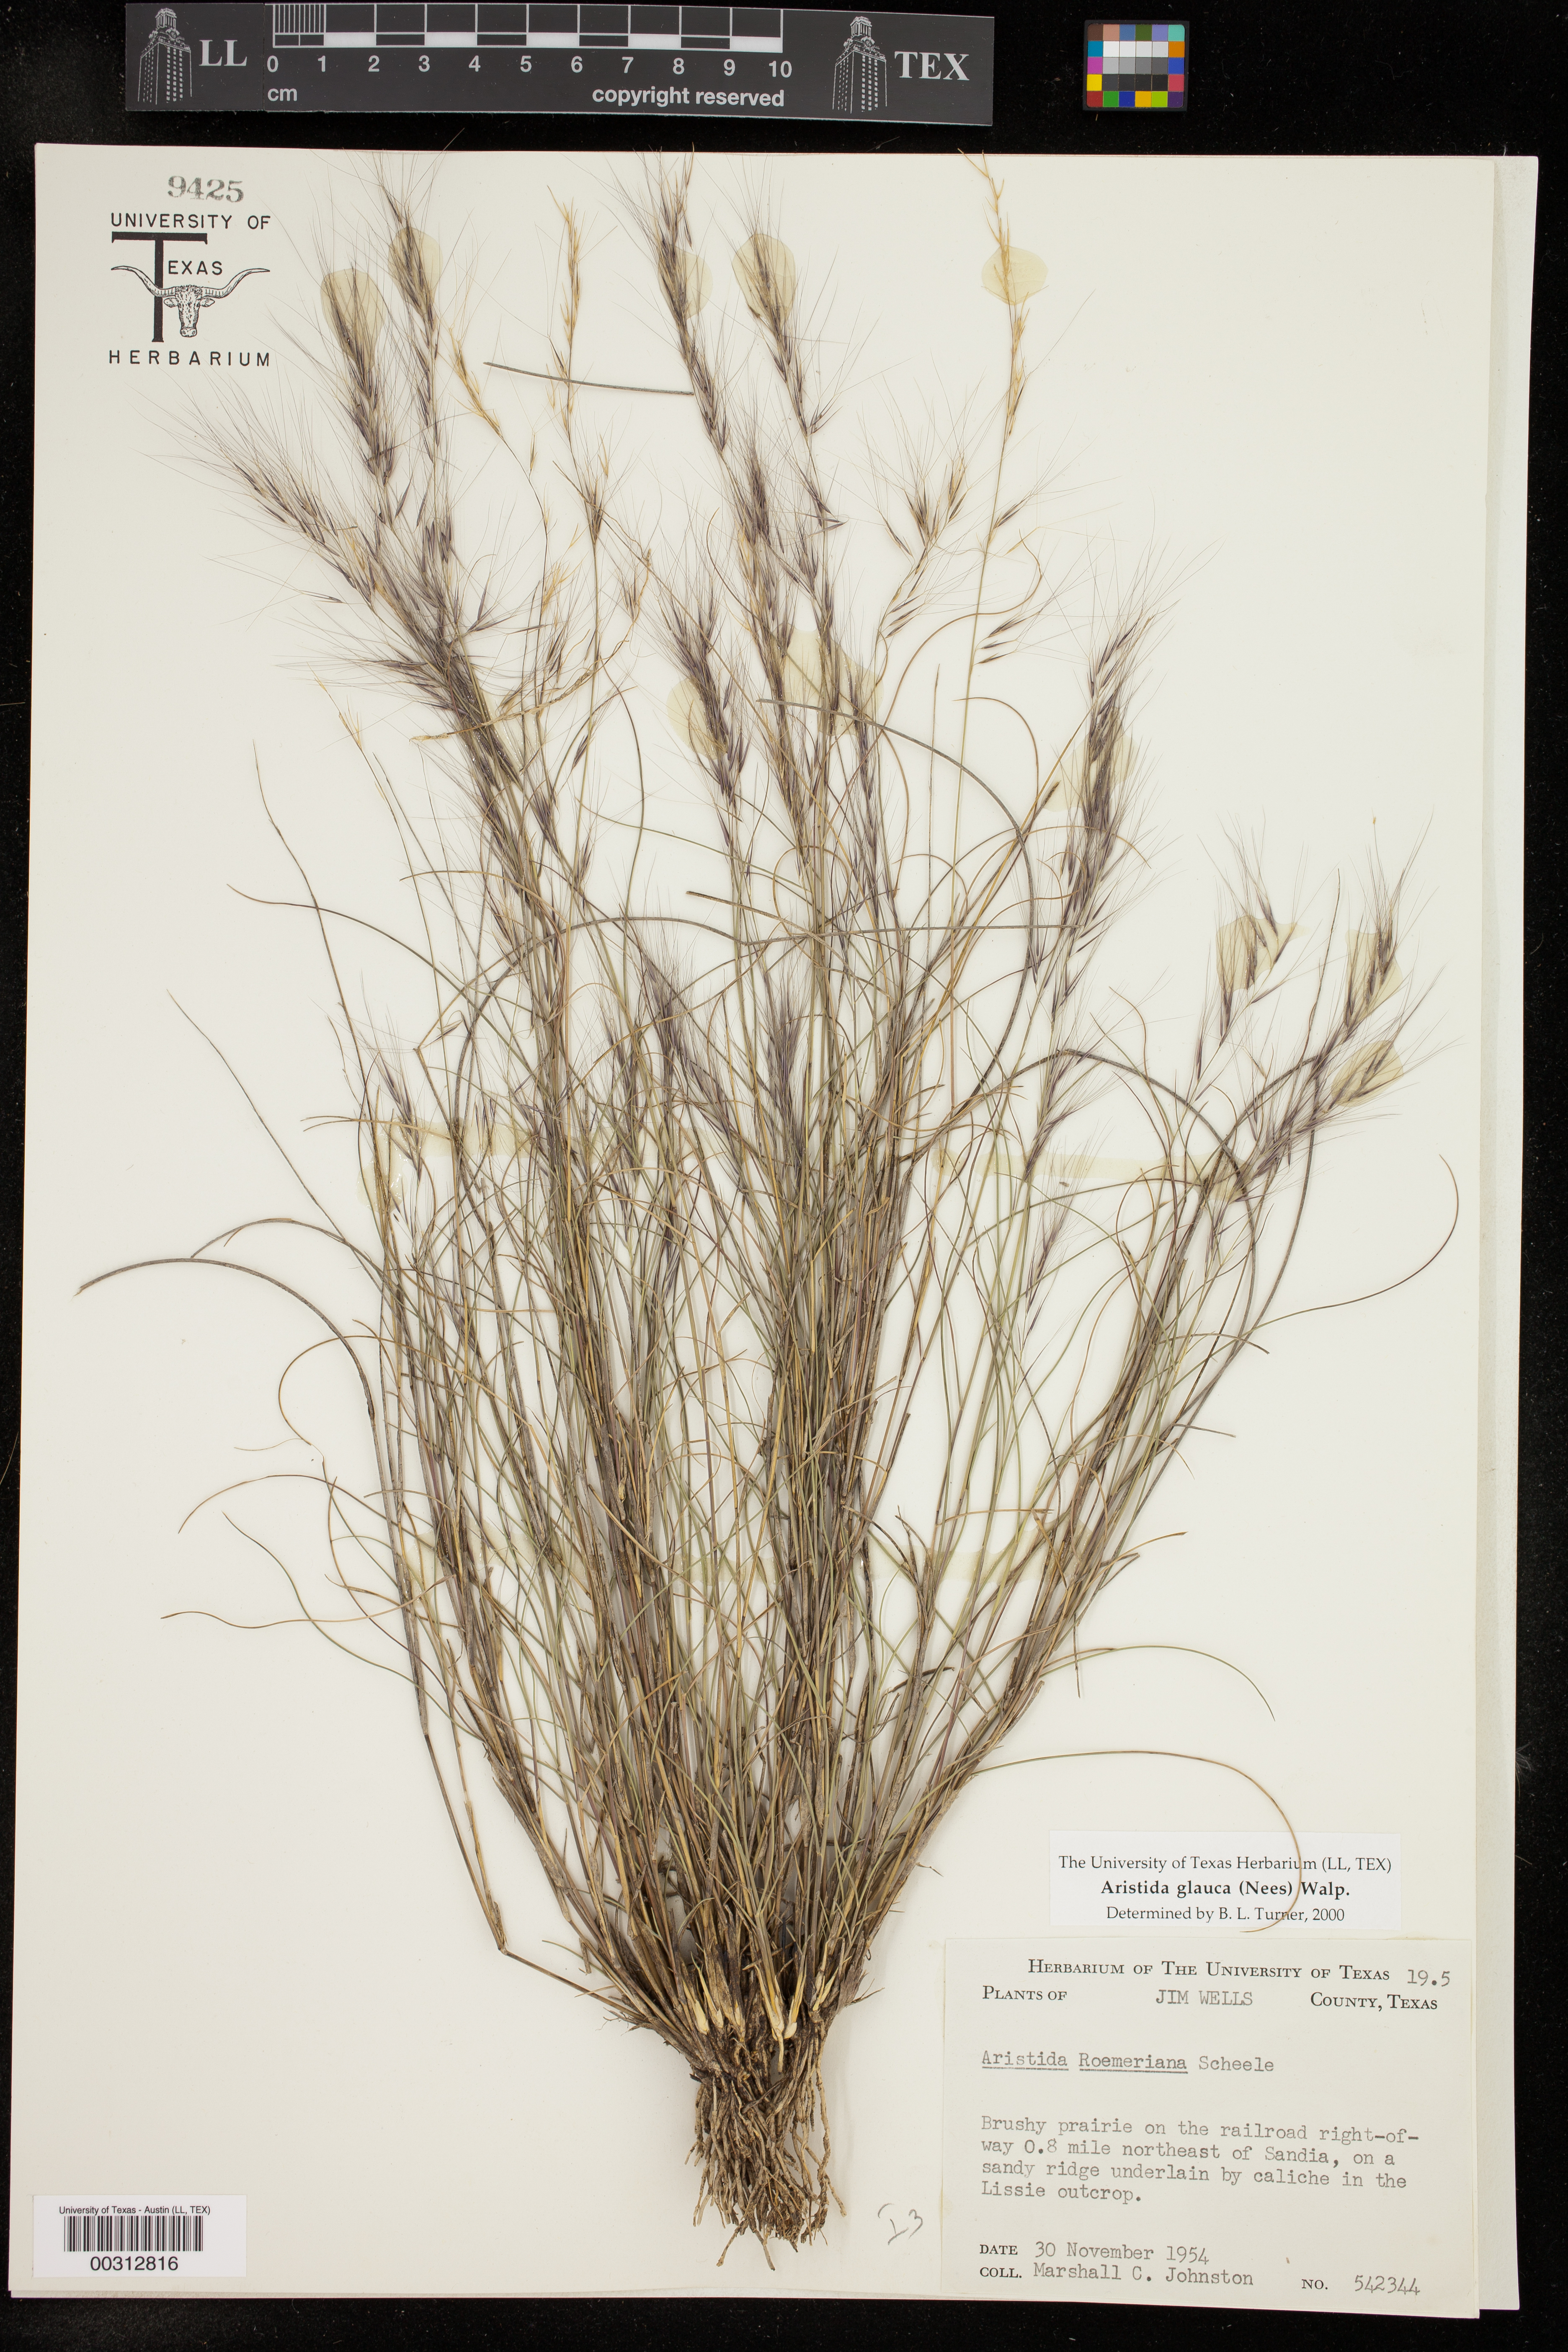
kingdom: Plantae
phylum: Tracheophyta
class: Liliopsida
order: Poales
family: Poaceae
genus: Aristida
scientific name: Aristida glauca
